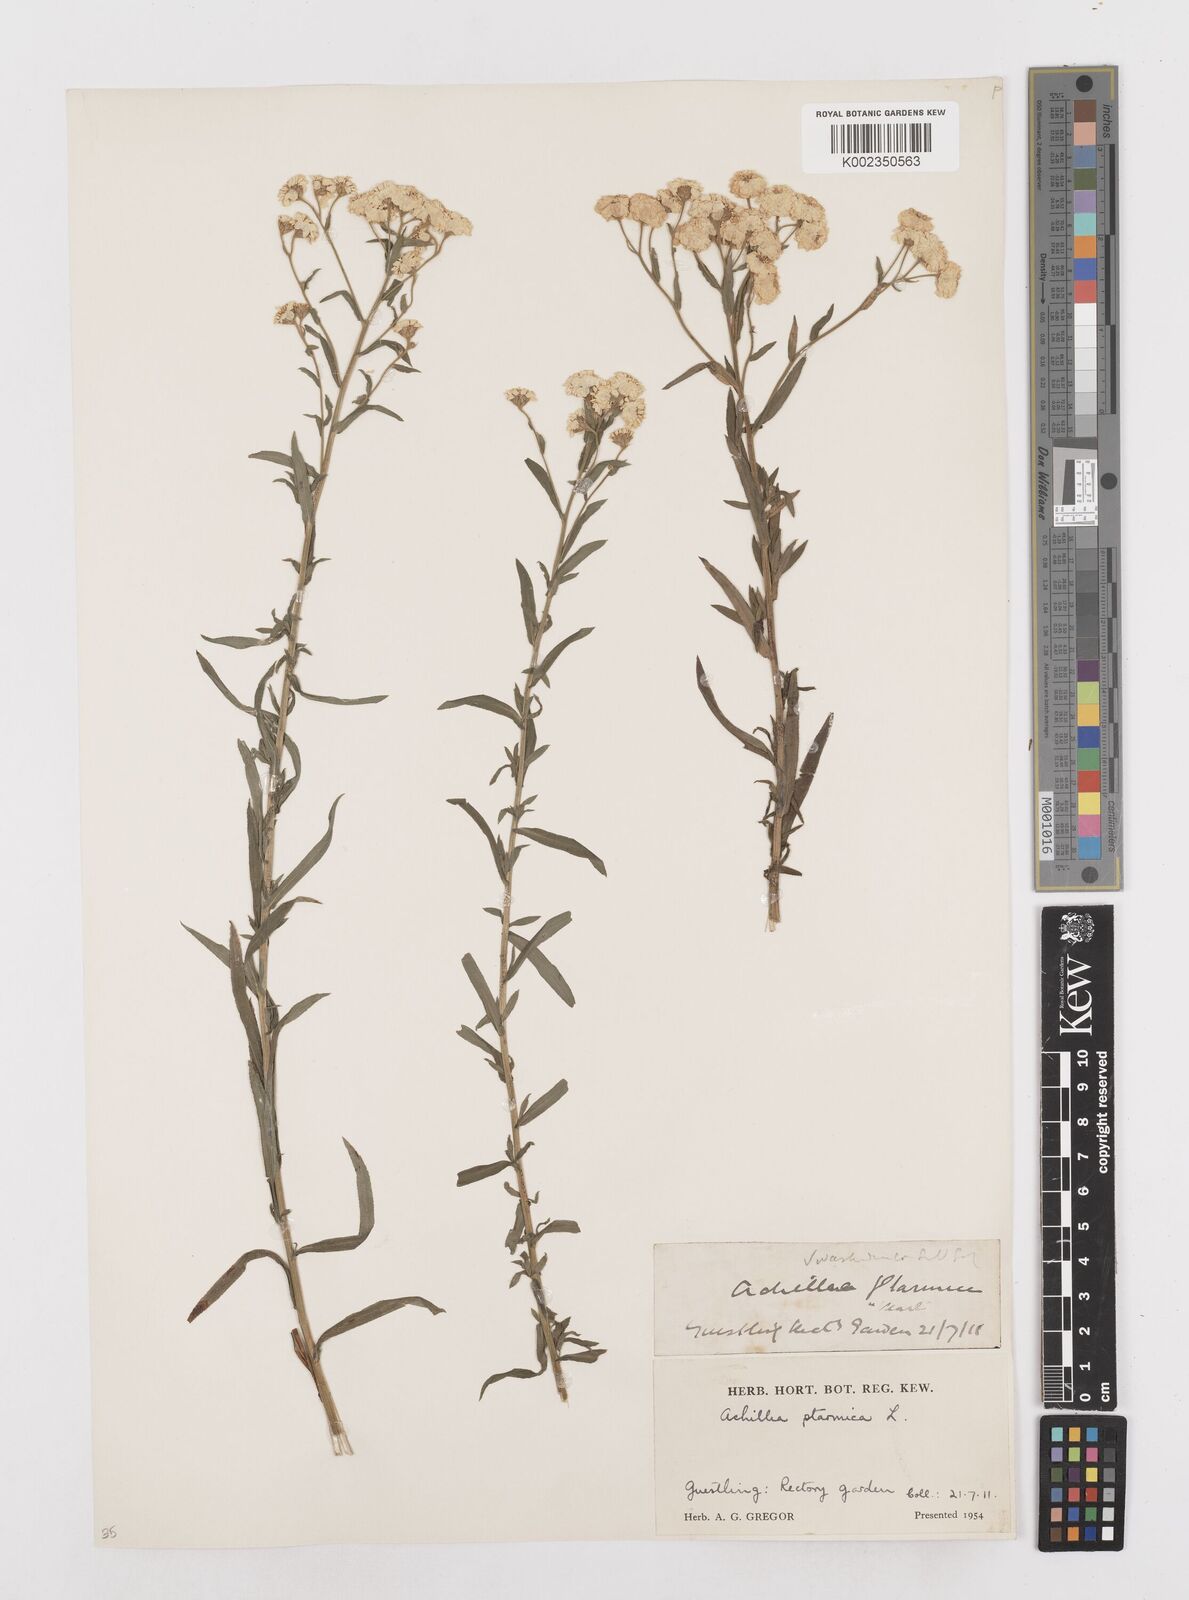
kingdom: Plantae
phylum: Tracheophyta
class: Magnoliopsida
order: Asterales
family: Asteraceae
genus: Achillea
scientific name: Achillea ptarmica
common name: Sneezeweed
